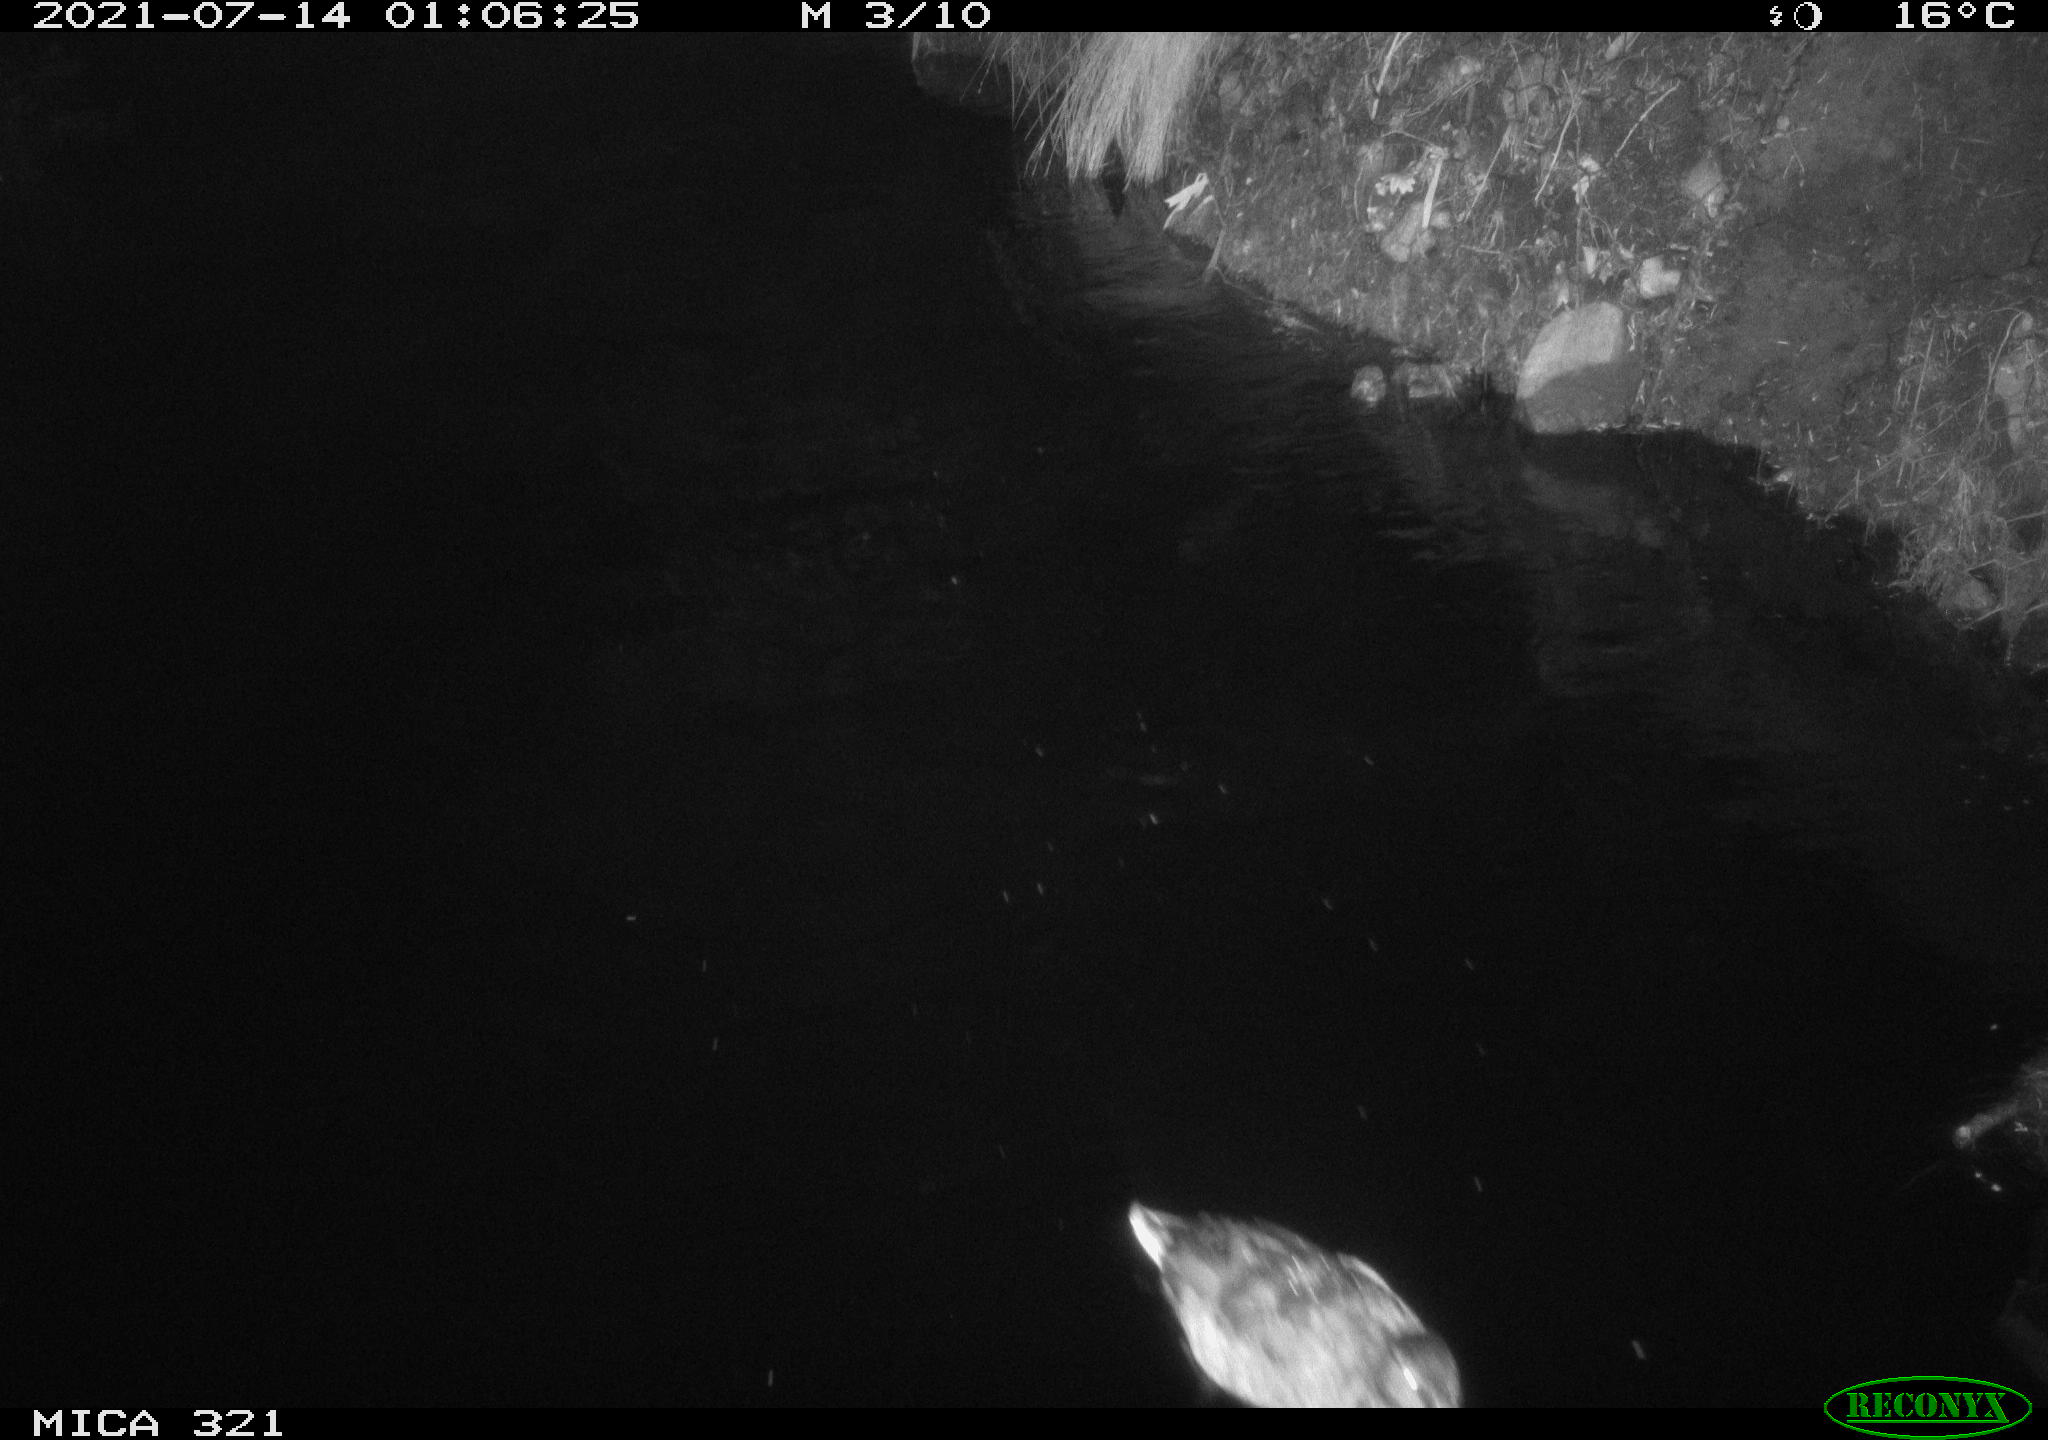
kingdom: Animalia
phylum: Chordata
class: Aves
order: Anseriformes
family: Anatidae
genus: Anas
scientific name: Anas platyrhynchos
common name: Mallard
